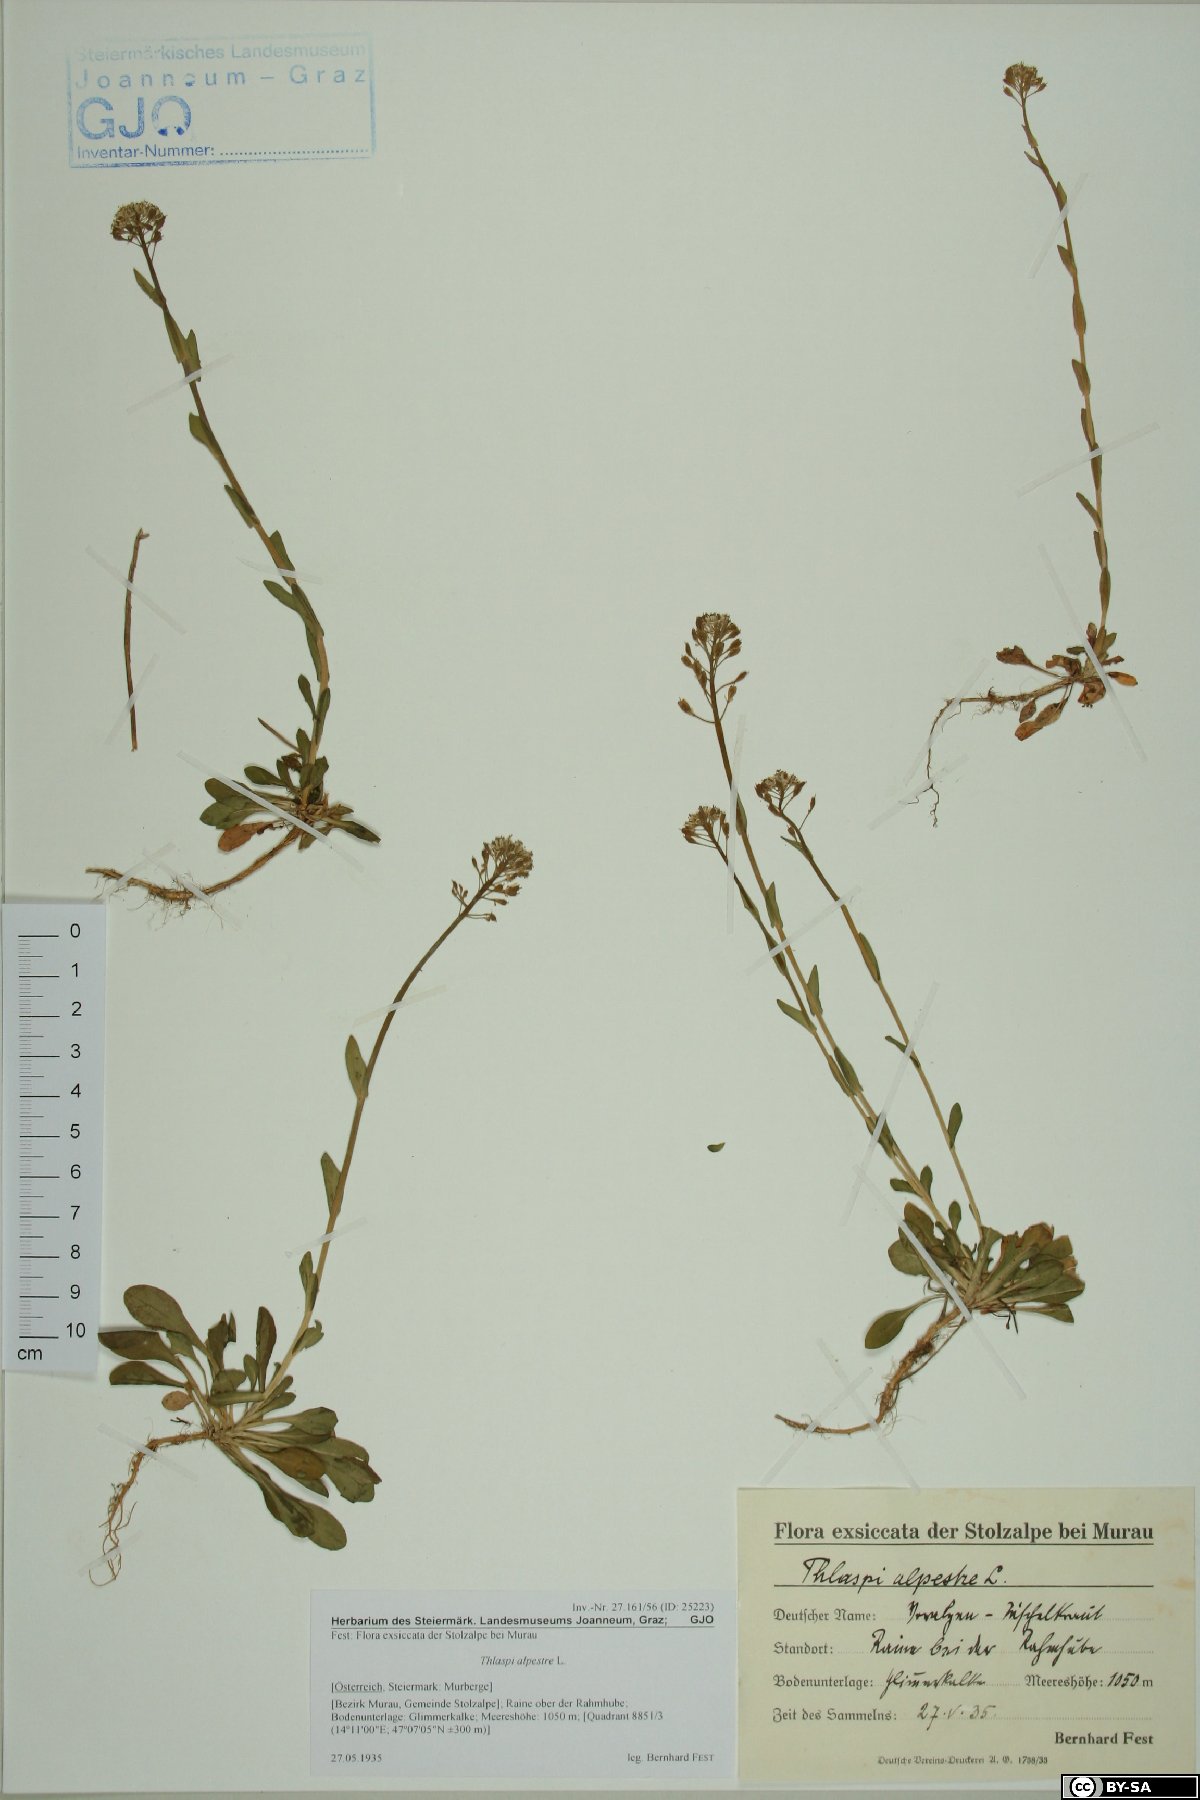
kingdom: Plantae
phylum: Tracheophyta
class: Magnoliopsida
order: Brassicales
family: Brassicaceae
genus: Noccaea
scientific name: Noccaea brachypetala
